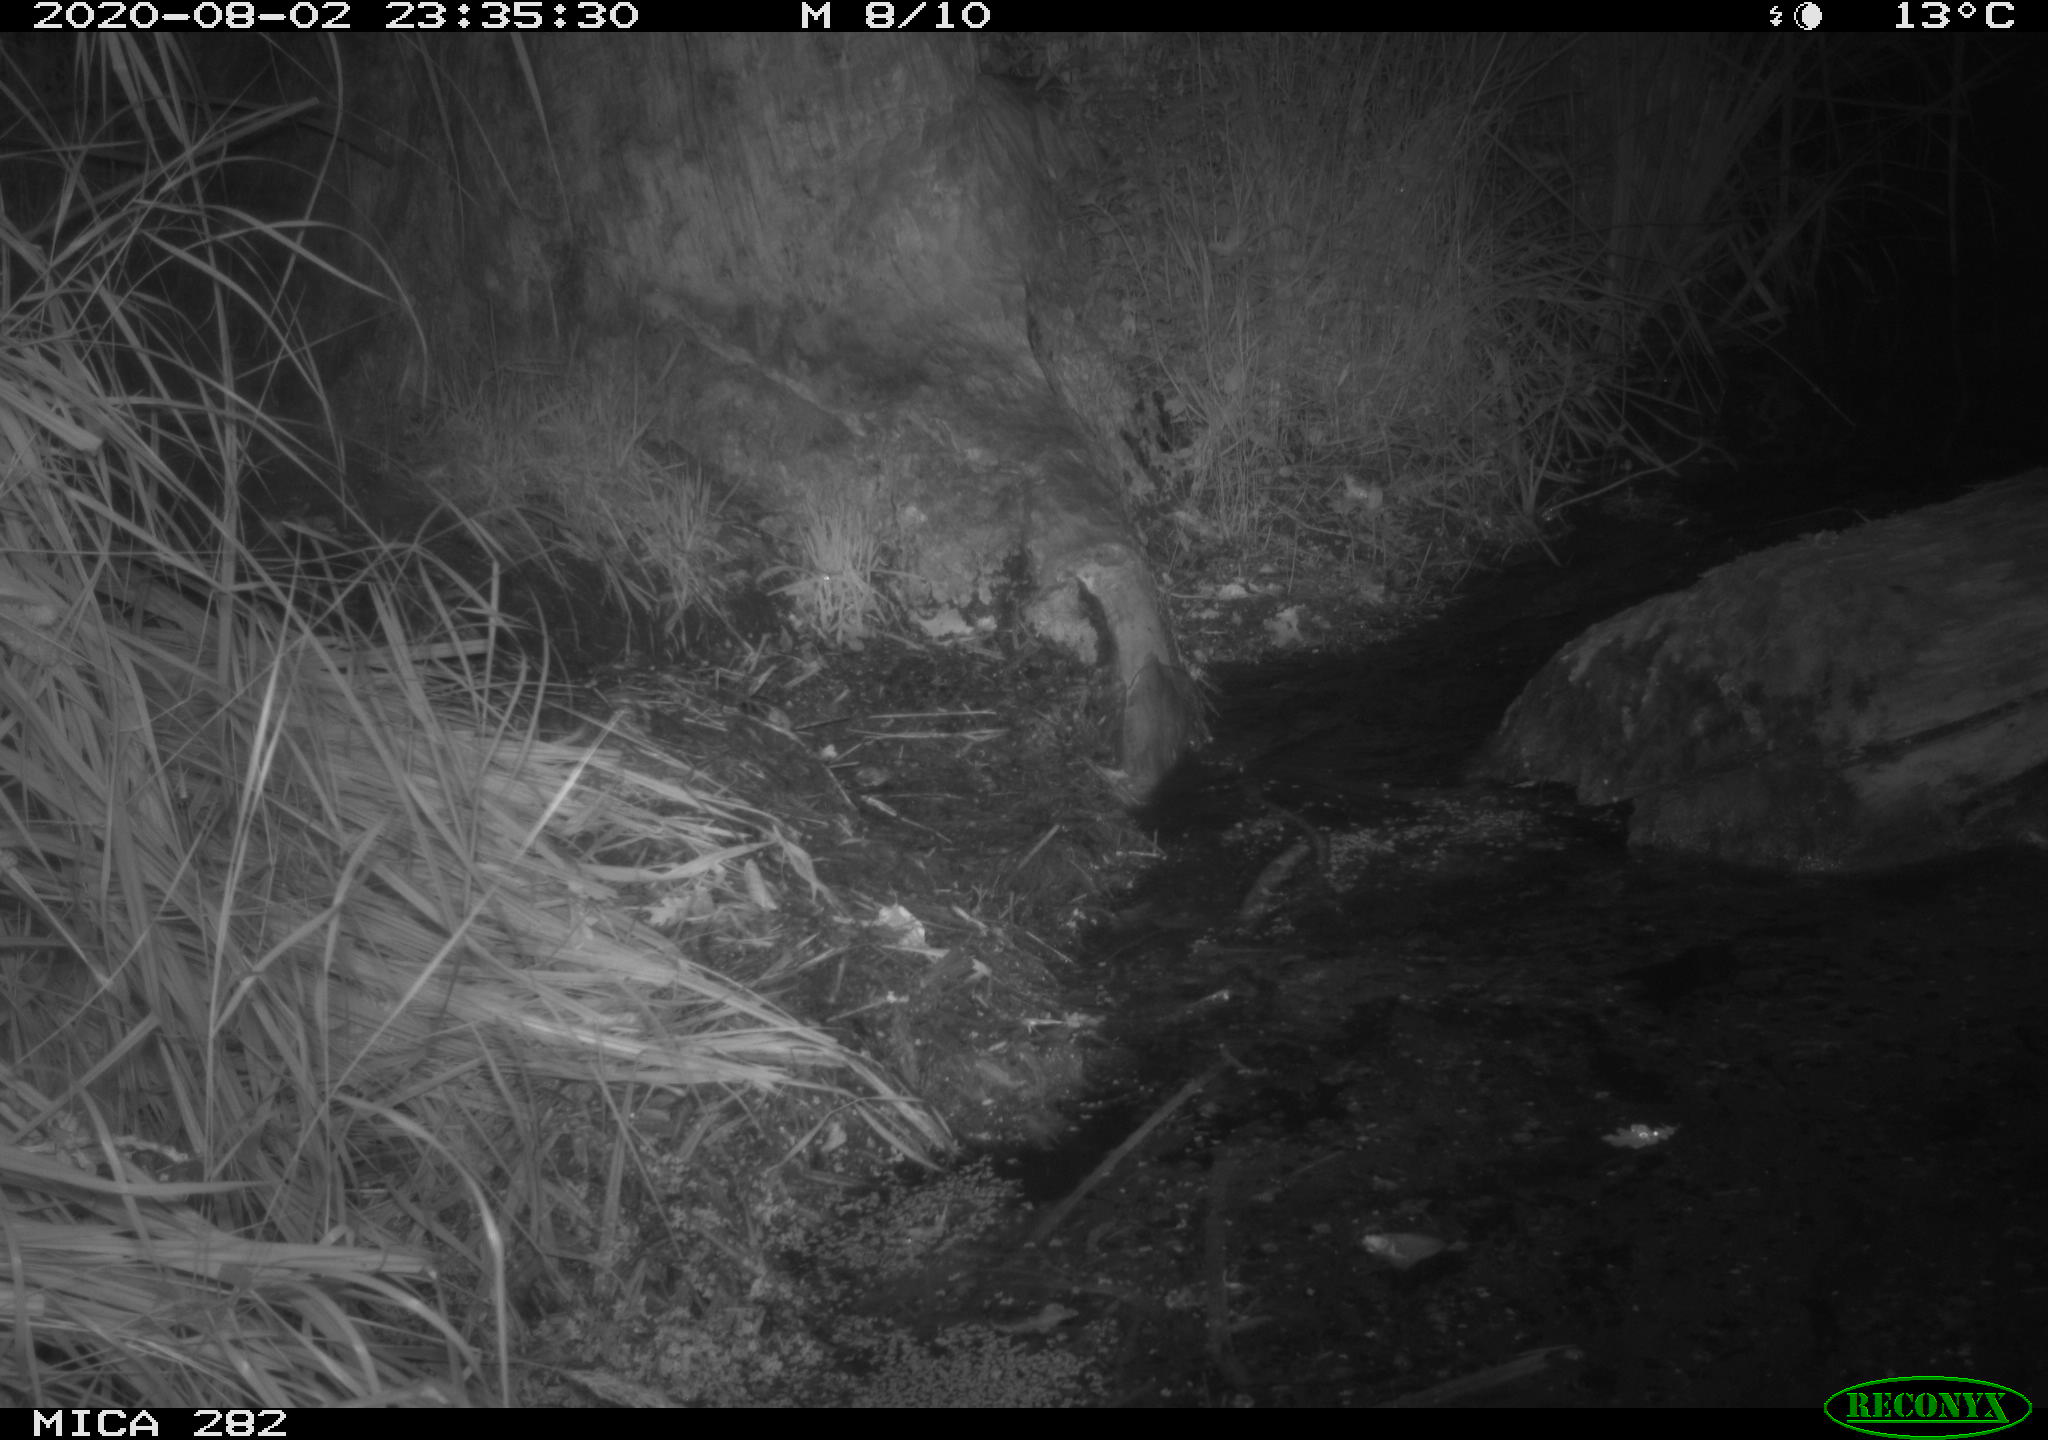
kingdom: Animalia
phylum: Chordata
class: Mammalia
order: Rodentia
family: Castoridae
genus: Castor
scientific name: Castor fiber
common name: Eurasian beaver
